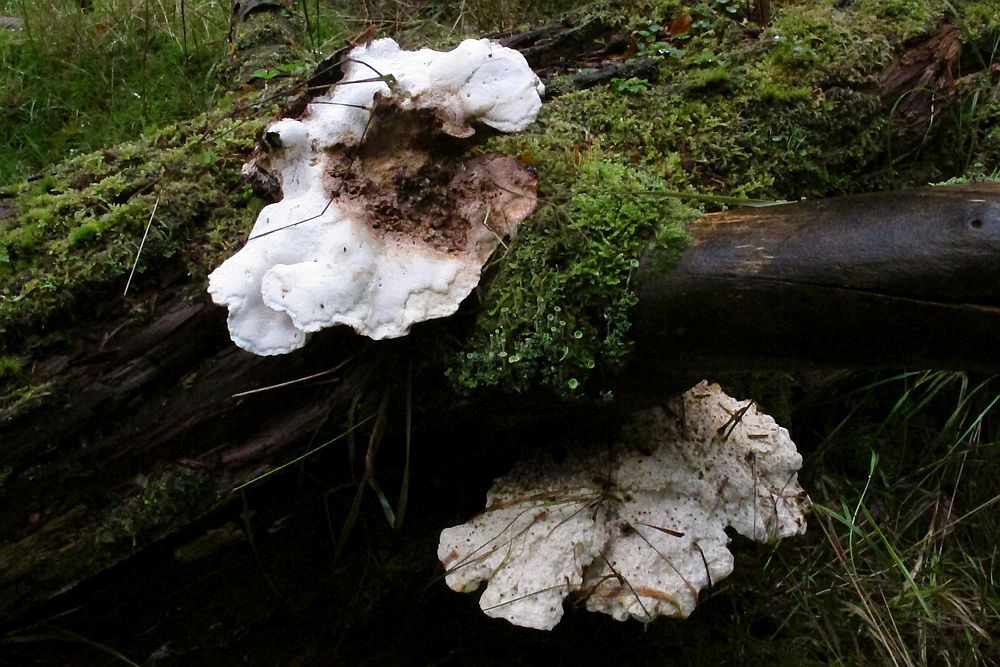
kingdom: Fungi
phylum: Basidiomycota
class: Agaricomycetes
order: Polyporales
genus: Calcipostia
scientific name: Calcipostia guttulata
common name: dråbe-kødporesvamp
